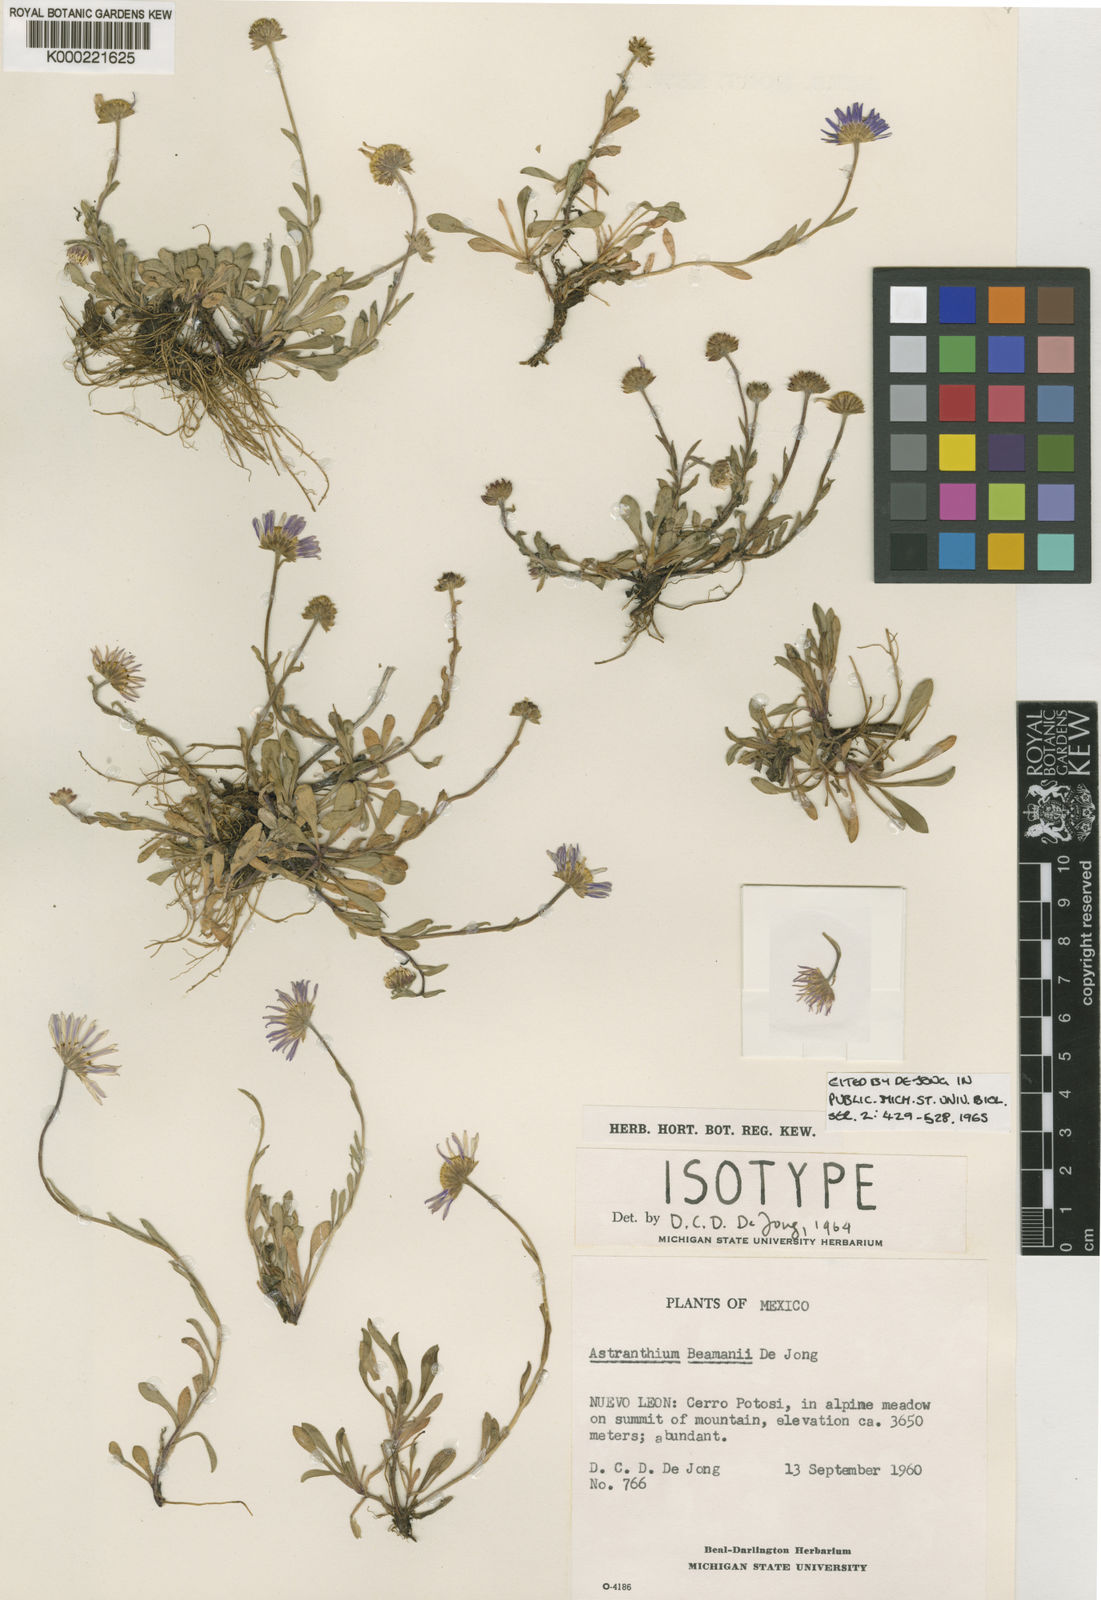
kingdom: Plantae
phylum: Tracheophyta
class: Magnoliopsida
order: Asterales
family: Asteraceae
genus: Astranthium
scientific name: Astranthium beamanii
